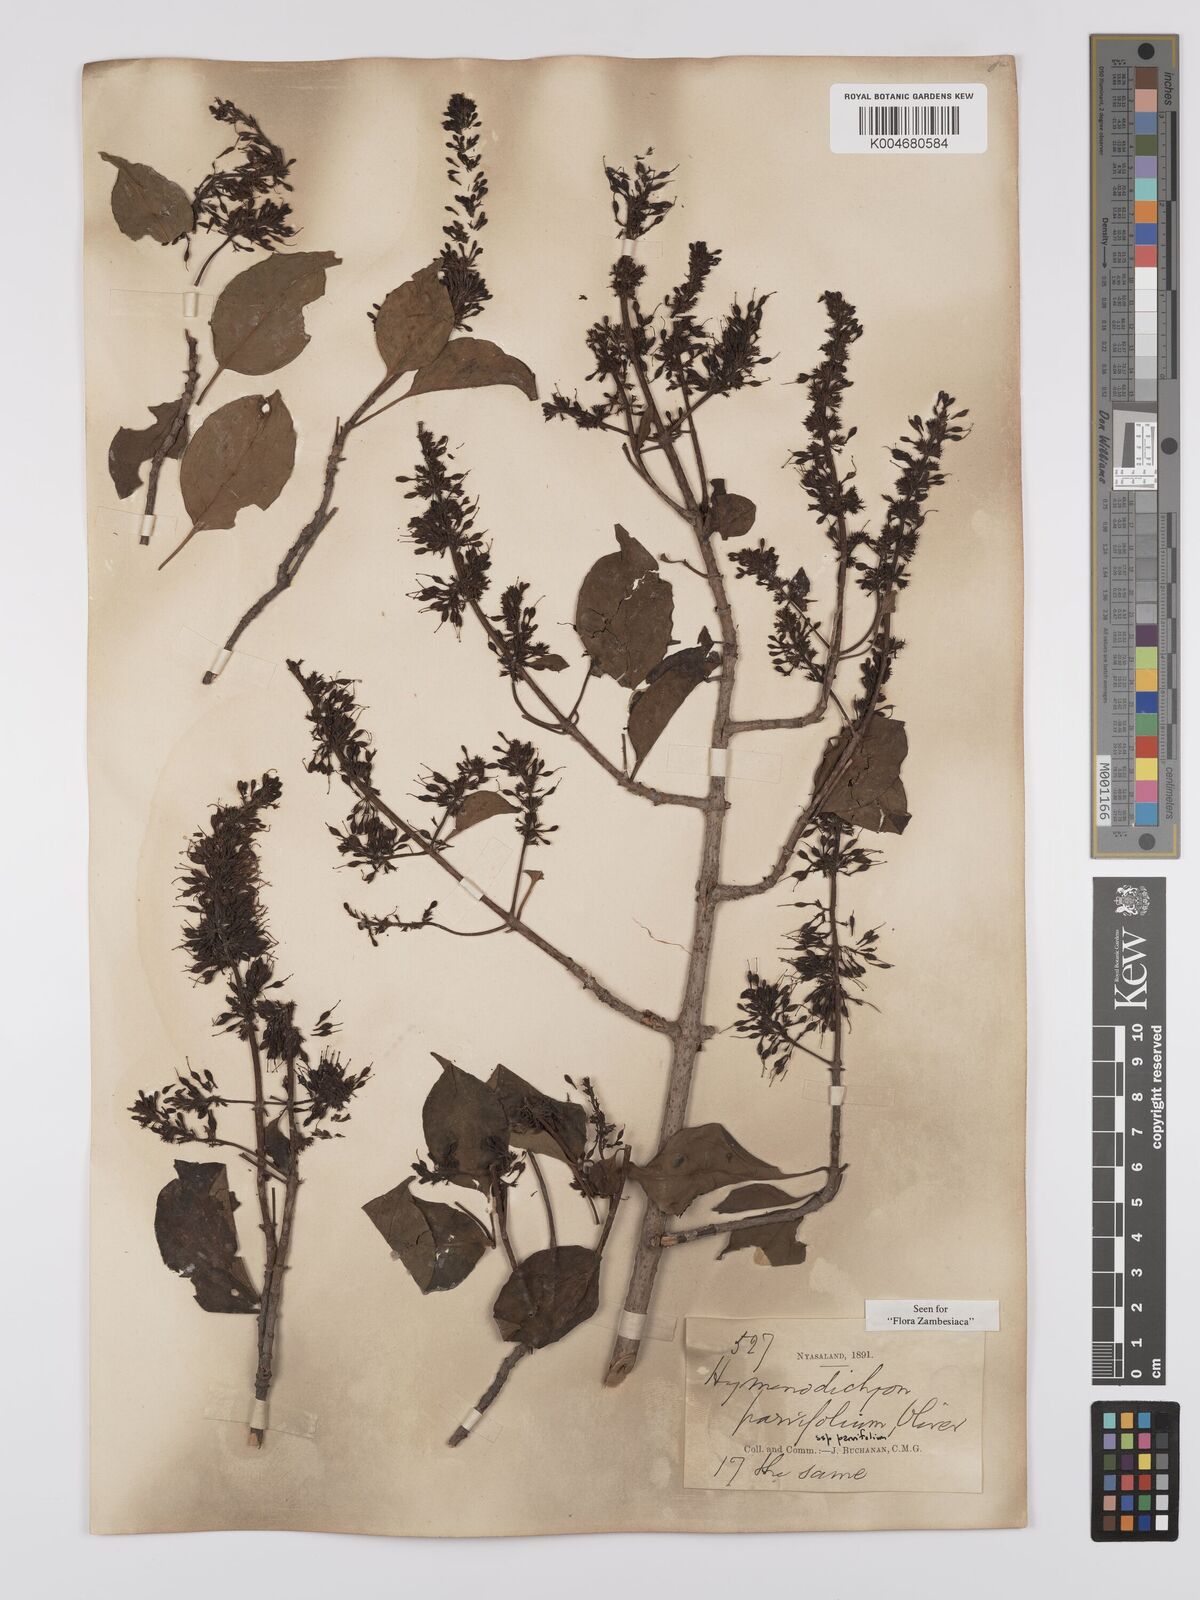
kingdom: Plantae
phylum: Tracheophyta
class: Magnoliopsida
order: Gentianales
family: Rubiaceae
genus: Hymenodictyon
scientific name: Hymenodictyon parvifolium
